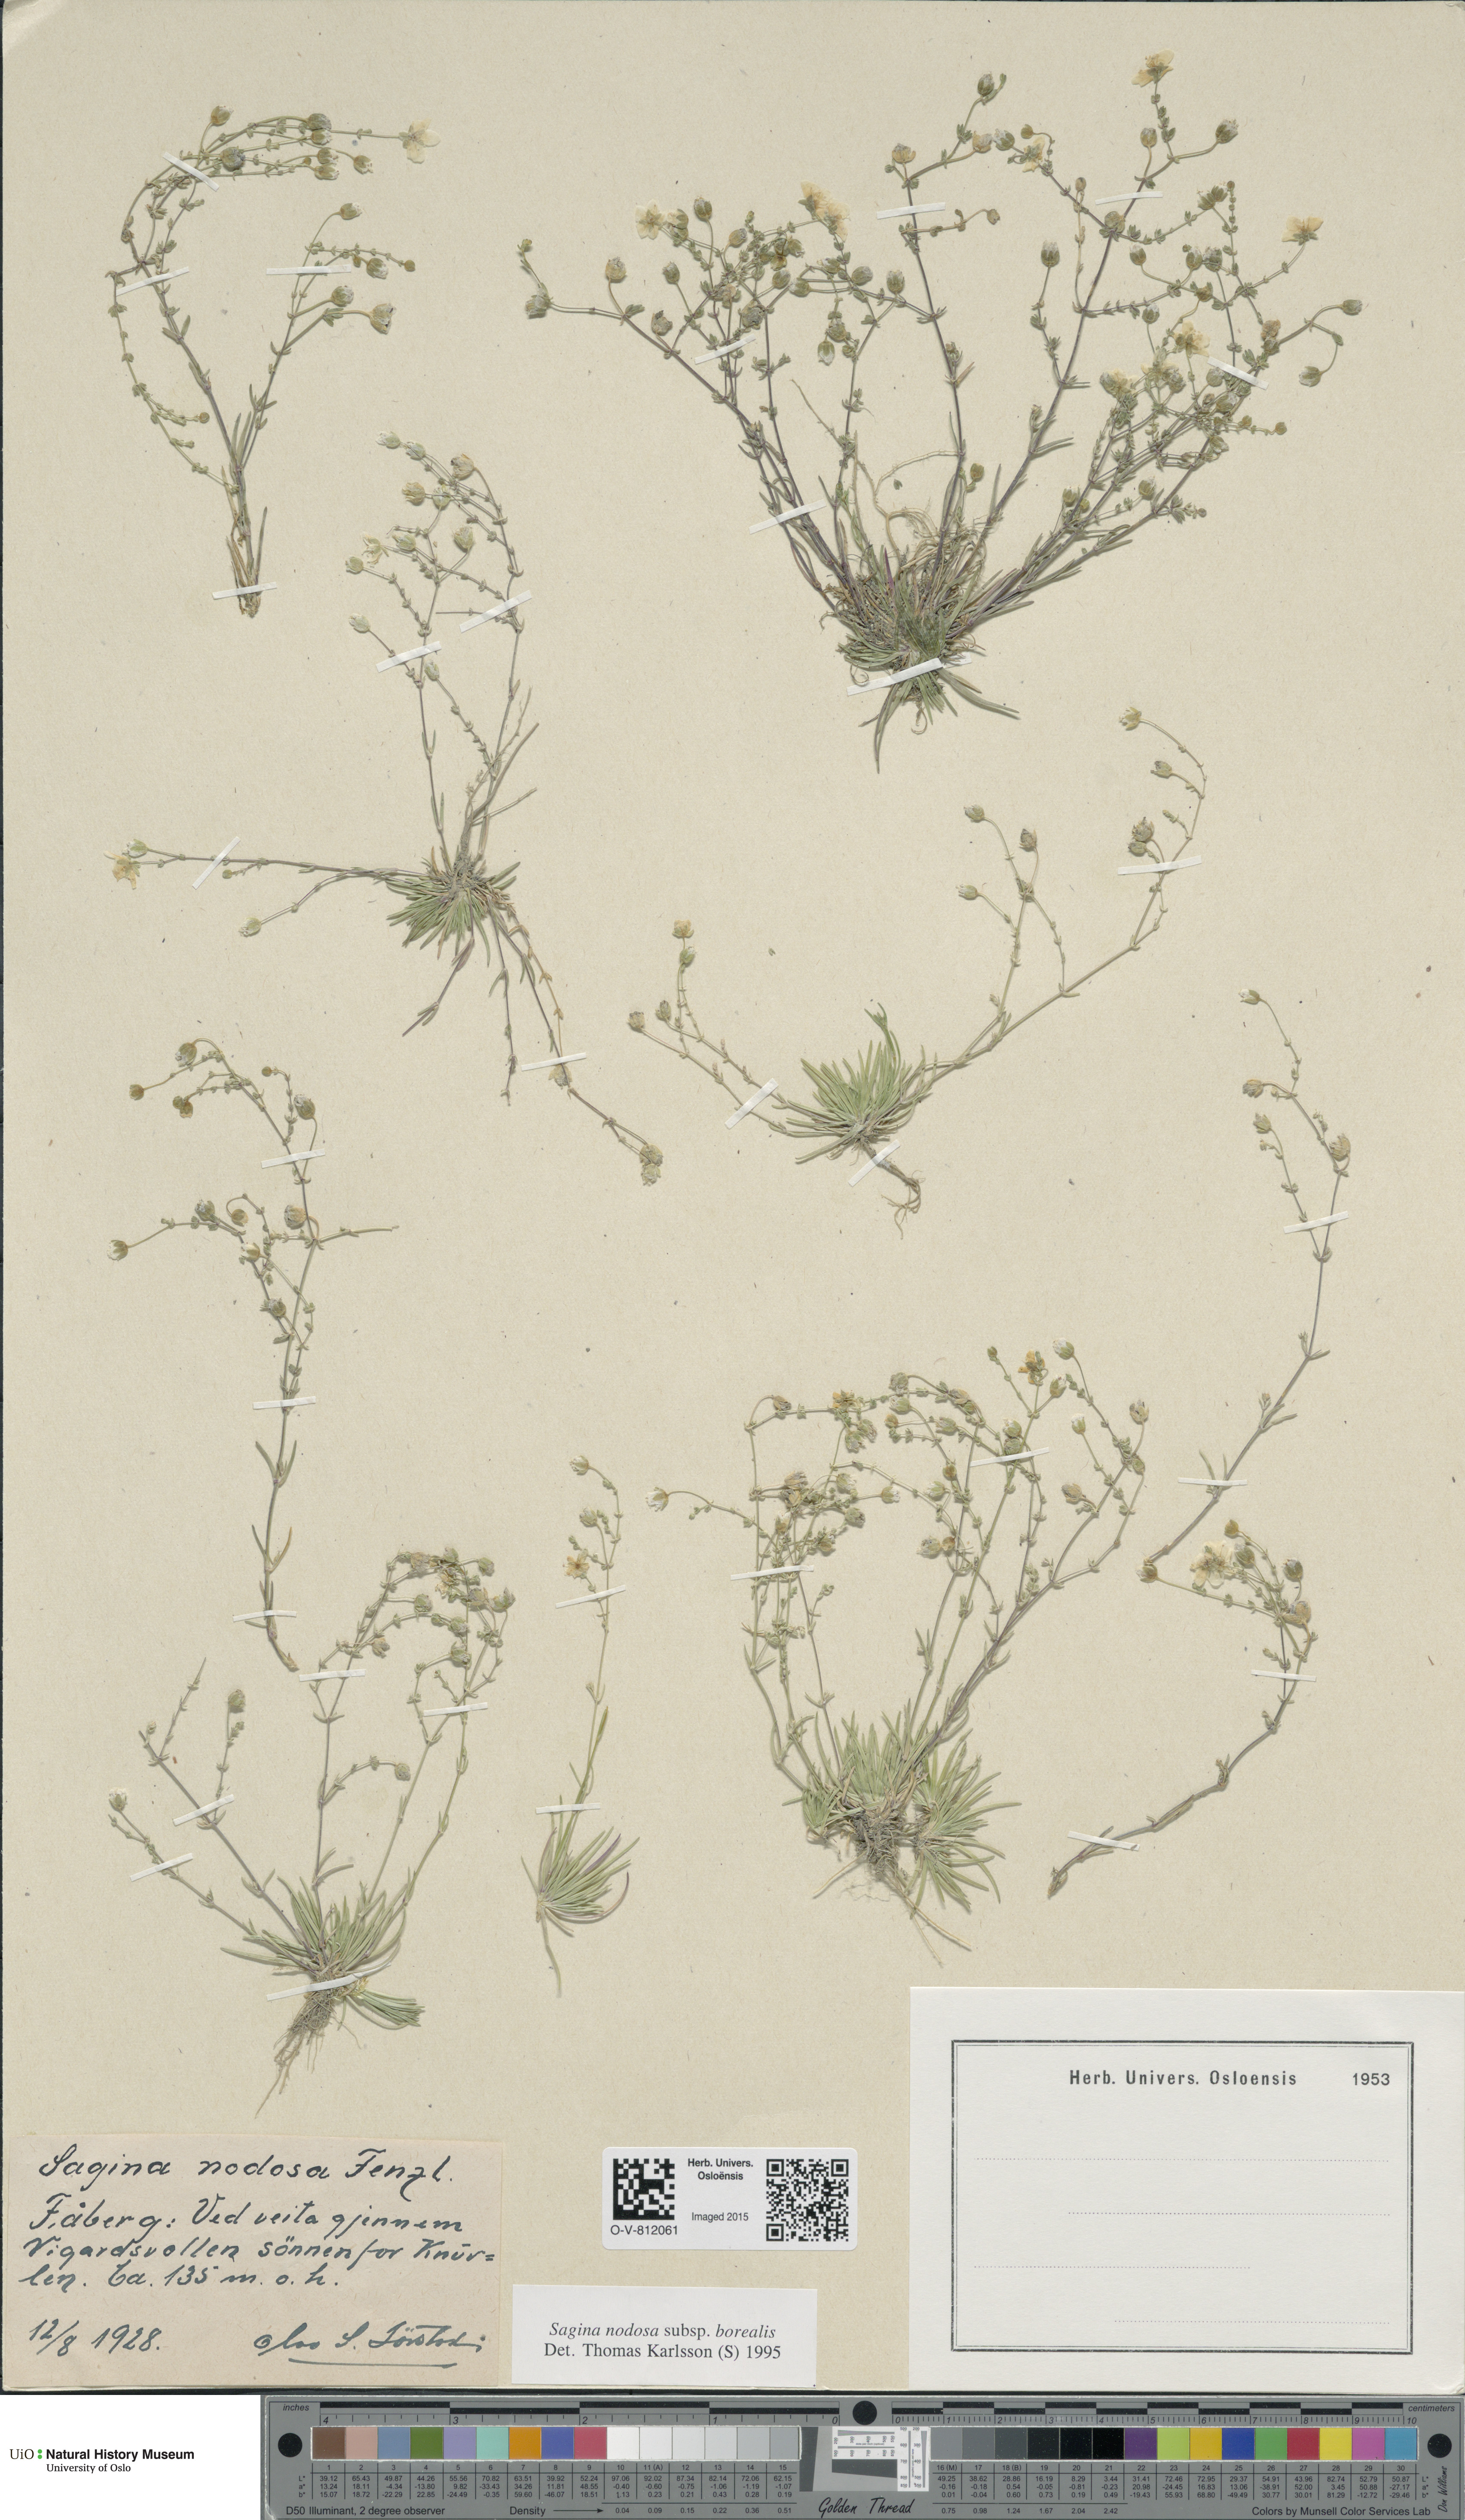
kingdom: Plantae
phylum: Tracheophyta
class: Magnoliopsida
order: Caryophyllales
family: Caryophyllaceae
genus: Sagina
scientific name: Sagina nodosa
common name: Knotted pearlwort
